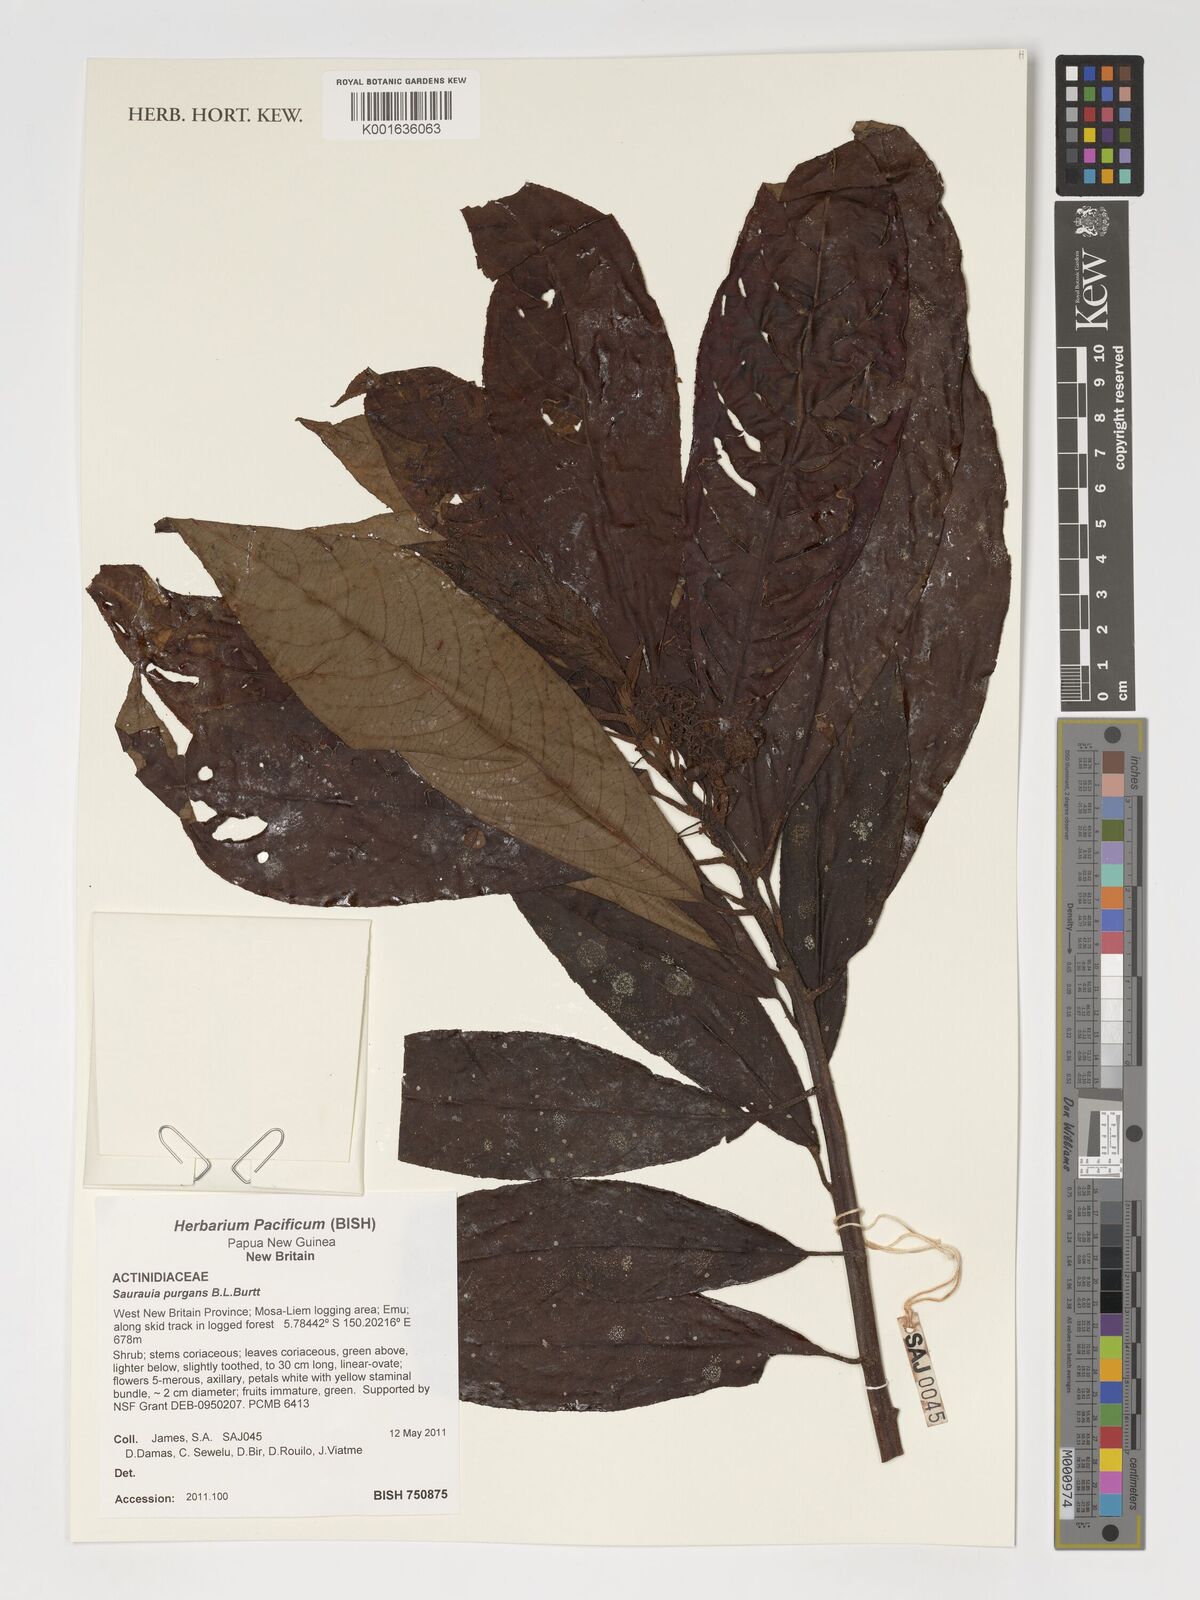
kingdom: Plantae
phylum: Tracheophyta
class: Magnoliopsida
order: Ericales
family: Actinidiaceae
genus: Saurauia
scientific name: Saurauia purgans
